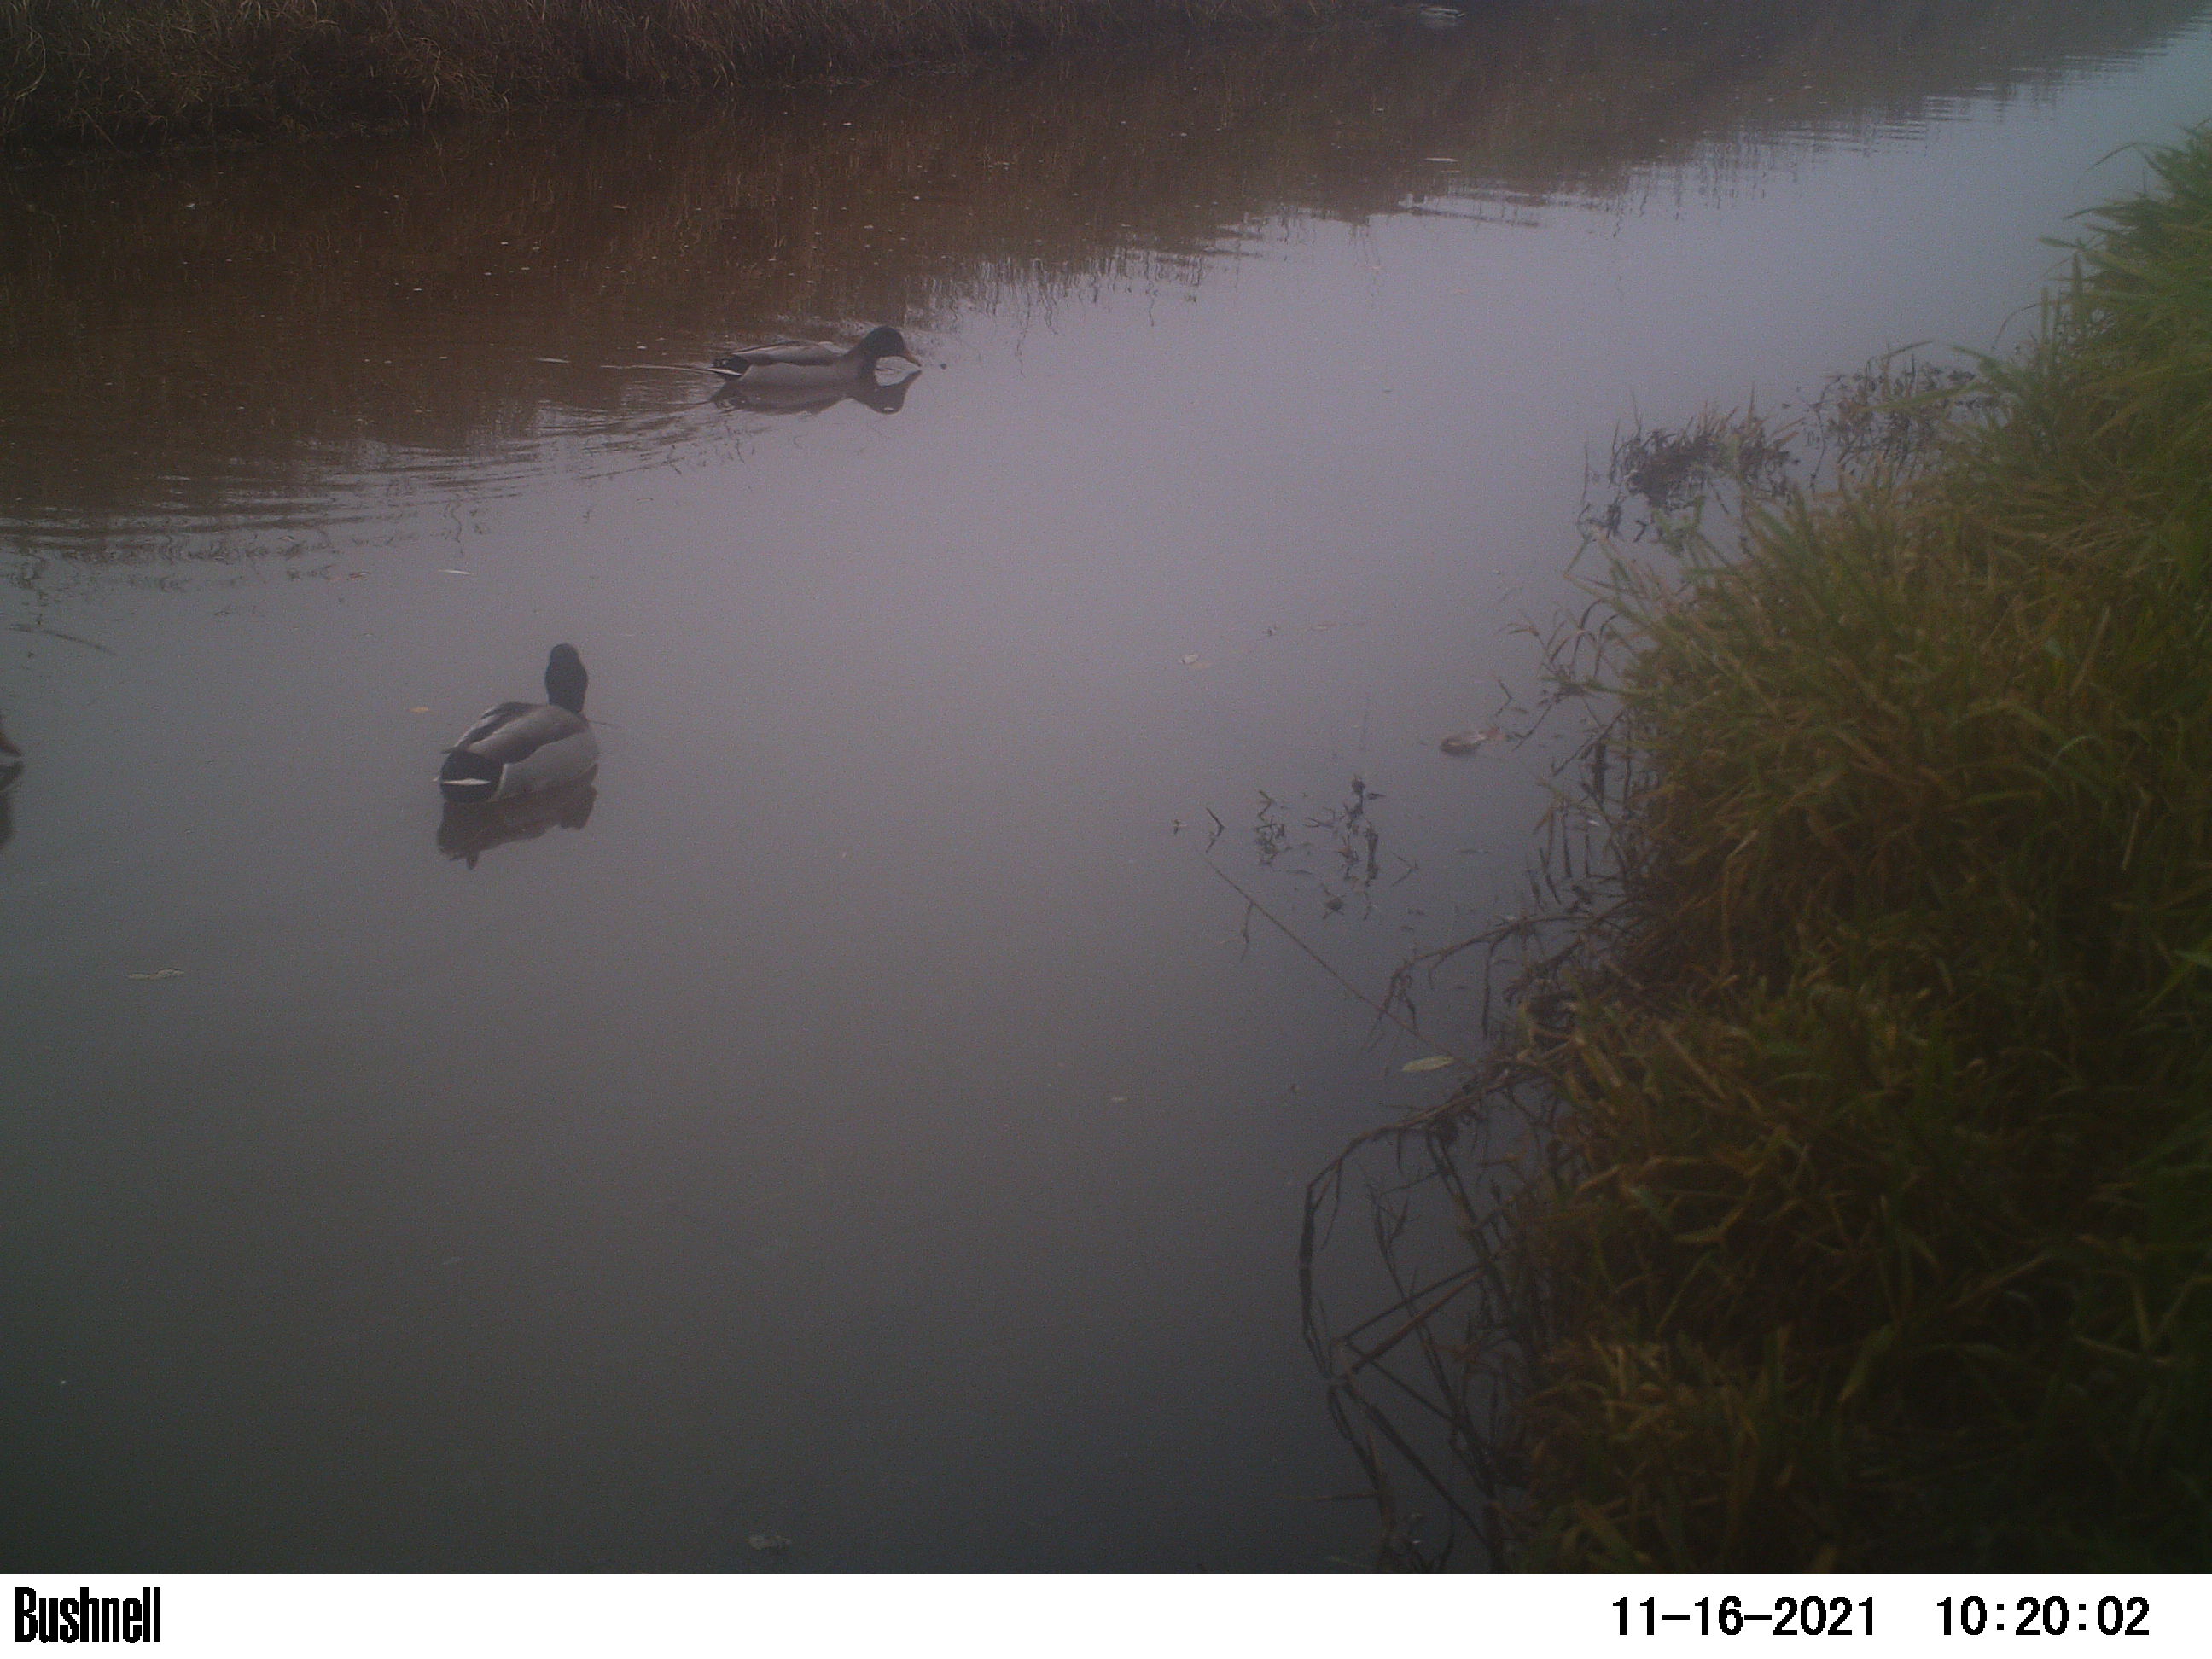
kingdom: Animalia
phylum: Chordata
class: Aves
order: Anseriformes
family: Anatidae
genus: Anas
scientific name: Anas
